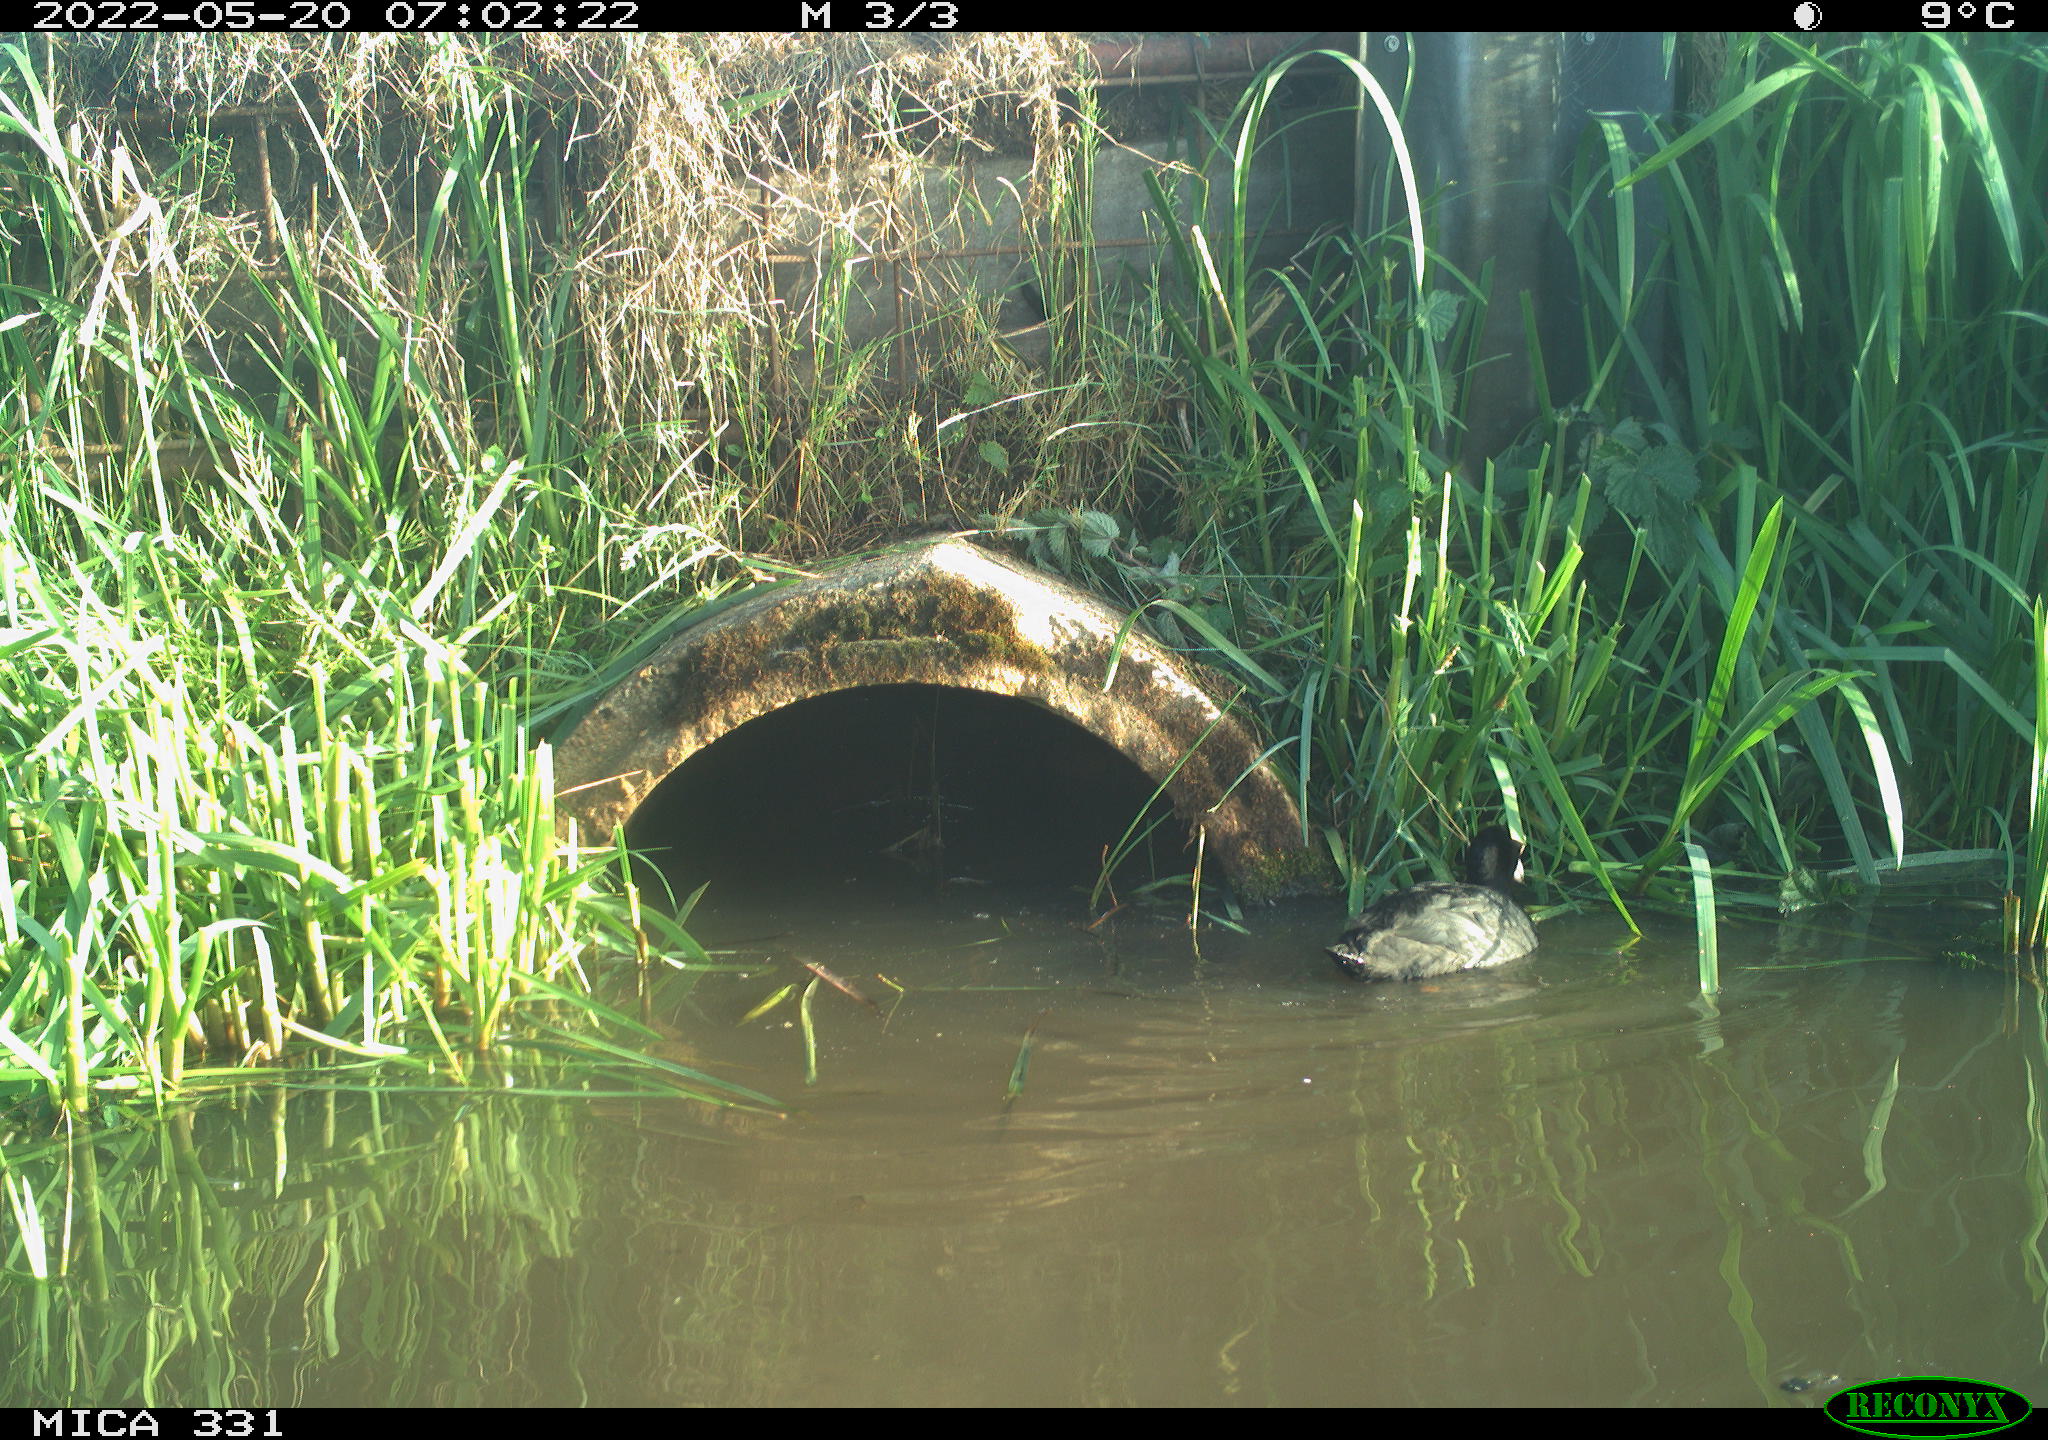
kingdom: Animalia
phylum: Chordata
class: Aves
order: Gruiformes
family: Rallidae
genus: Fulica
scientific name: Fulica atra
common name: Eurasian coot
